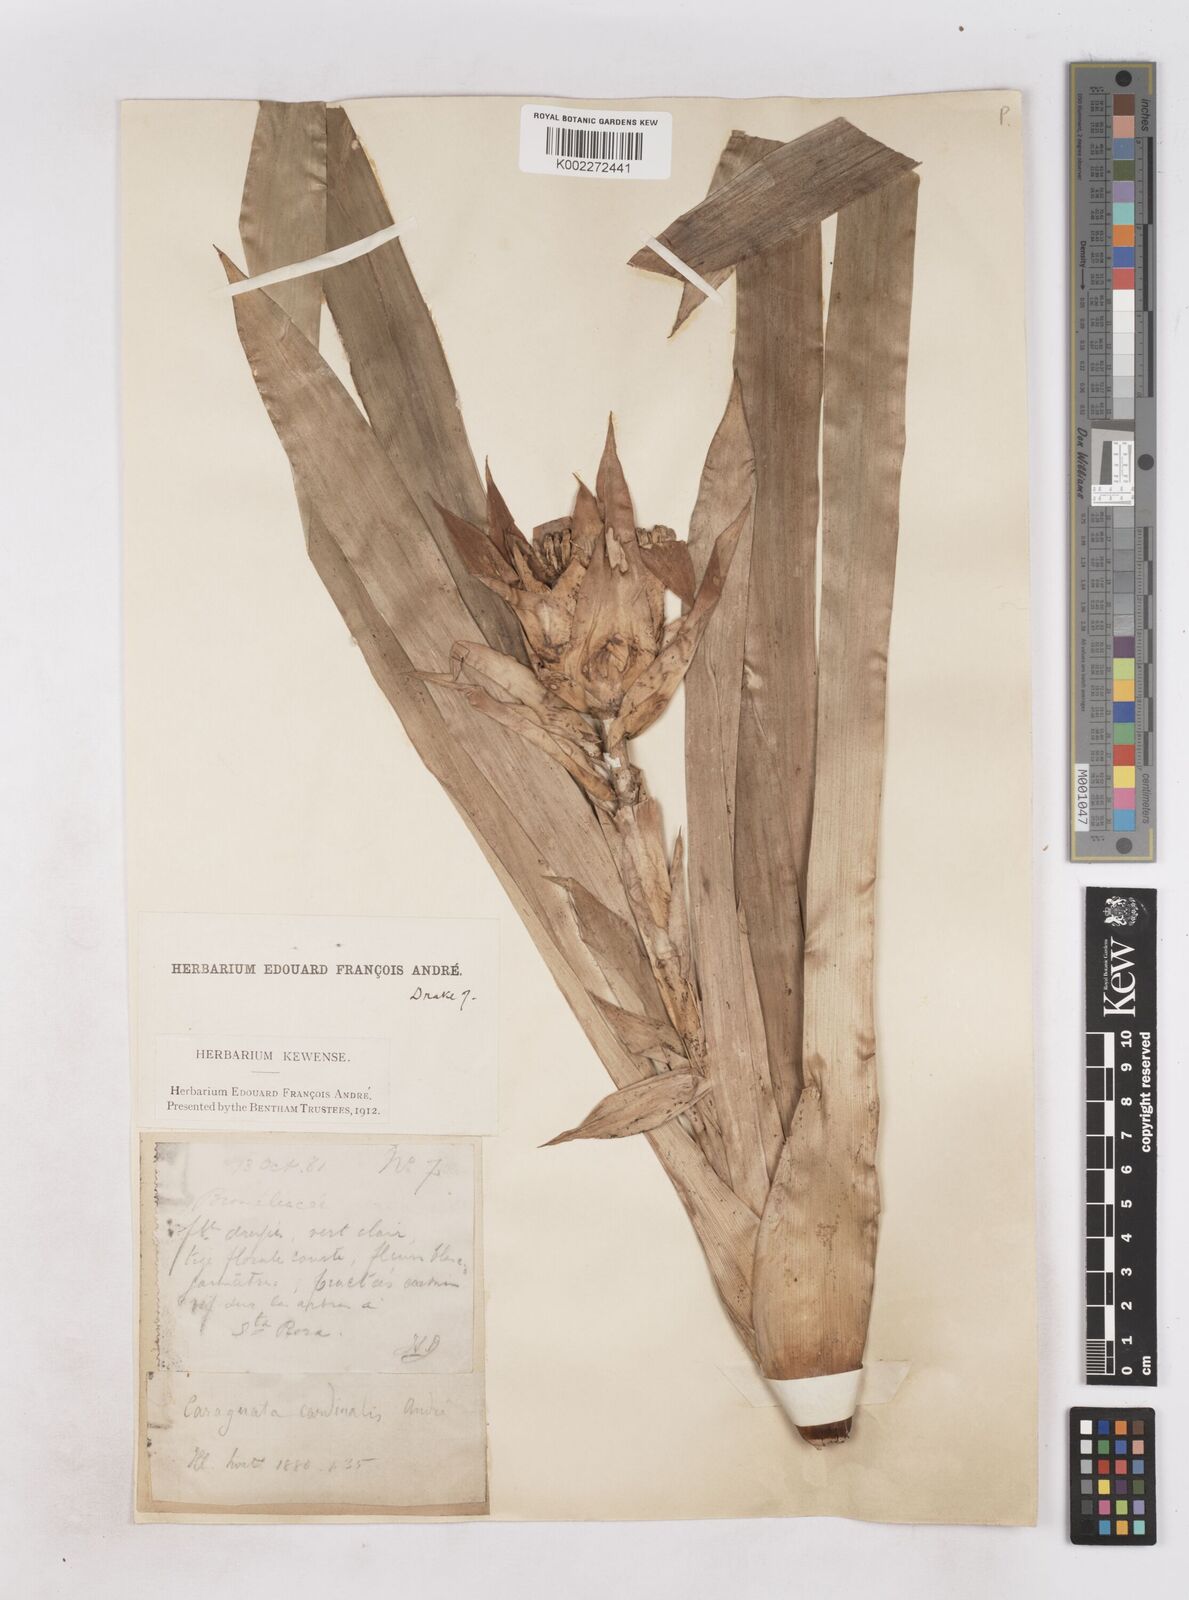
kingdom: Plantae
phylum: Tracheophyta
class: Liliopsida
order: Poales
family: Bromeliaceae
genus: Guzmania
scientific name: Guzmania lingulata
